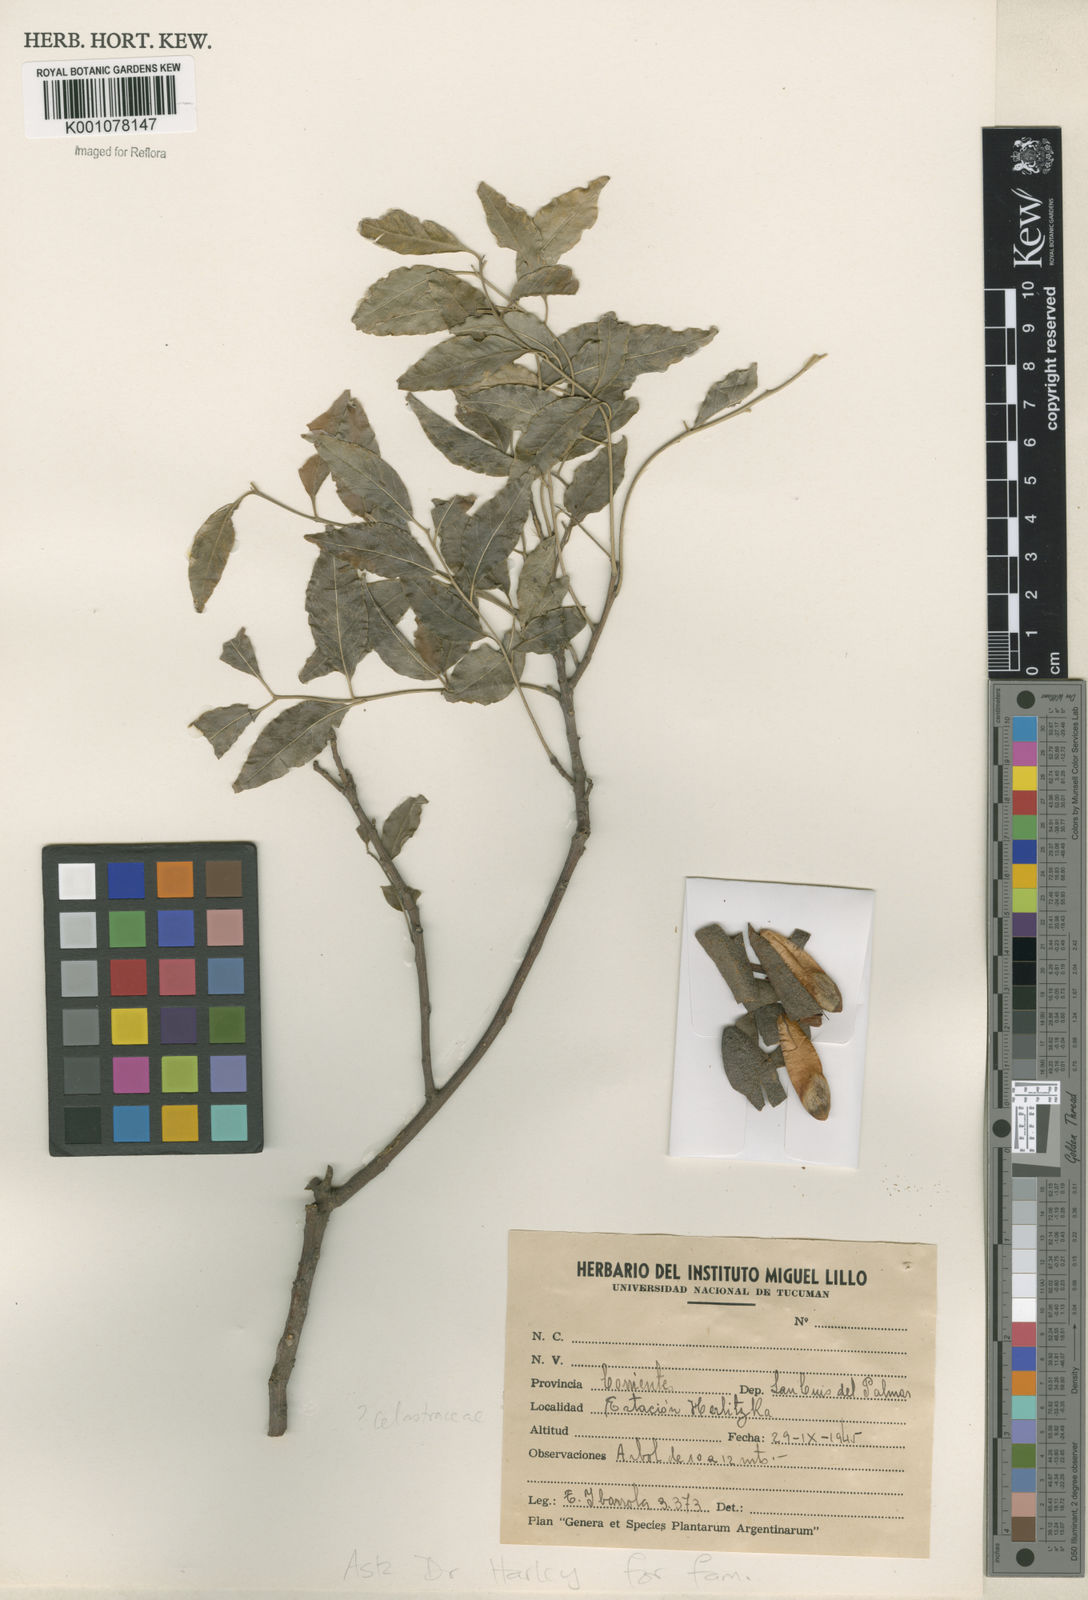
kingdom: Plantae
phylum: Tracheophyta
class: Magnoliopsida
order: Celastrales
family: Celastraceae
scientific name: Celastraceae
